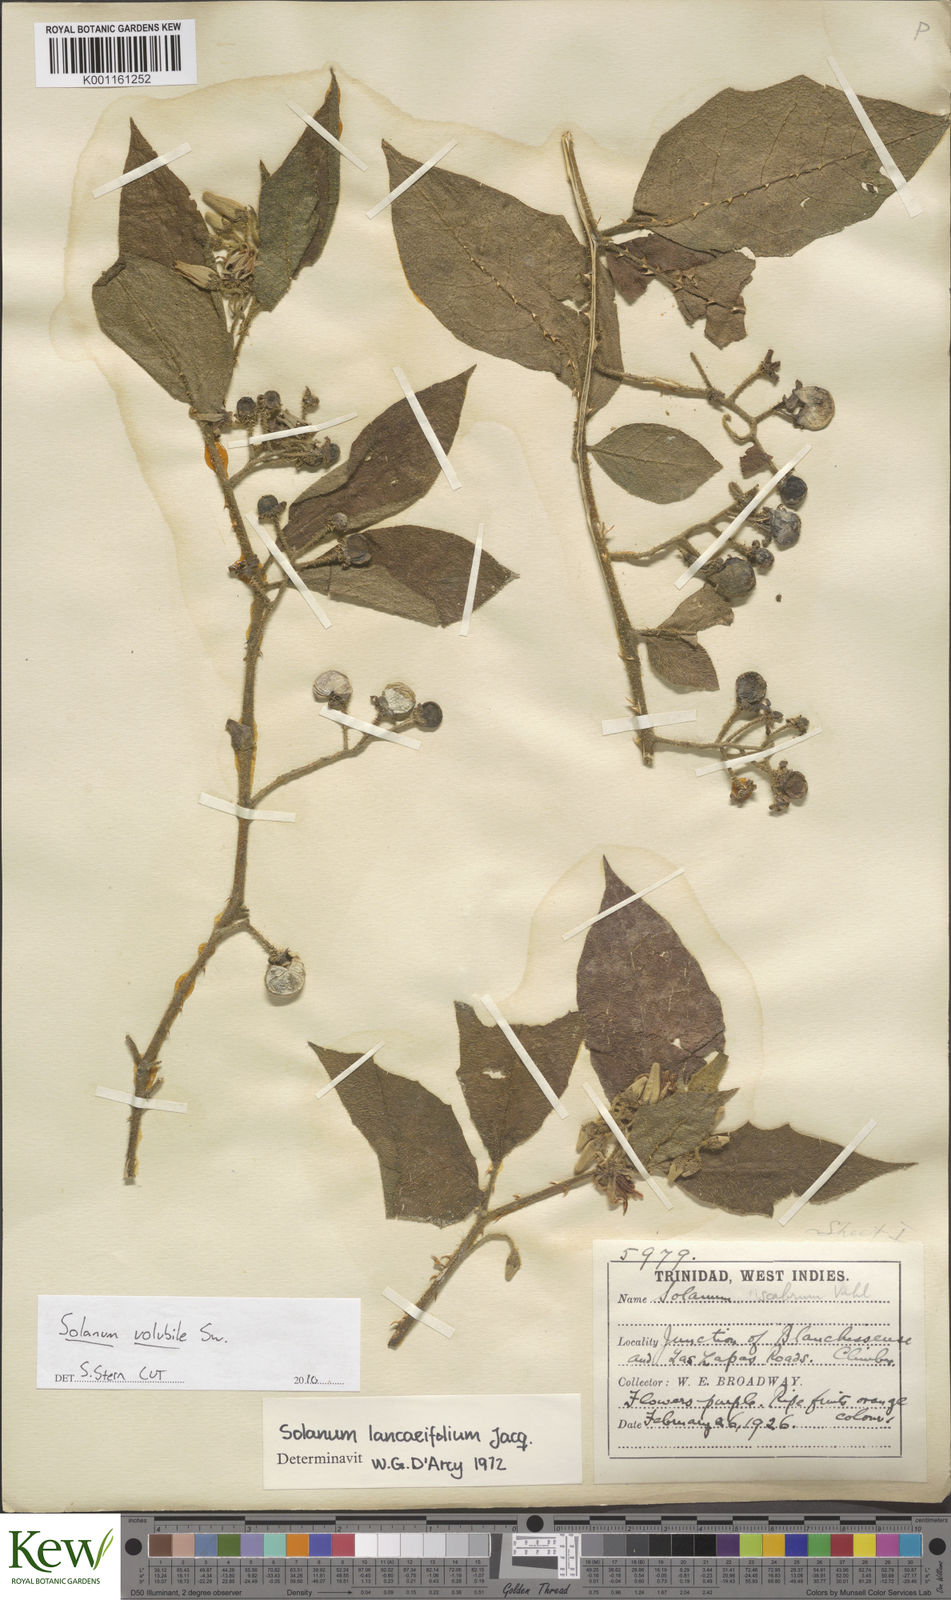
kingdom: Plantae
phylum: Tracheophyta
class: Magnoliopsida
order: Solanales
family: Solanaceae
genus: Solanum
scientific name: Solanum volubile
